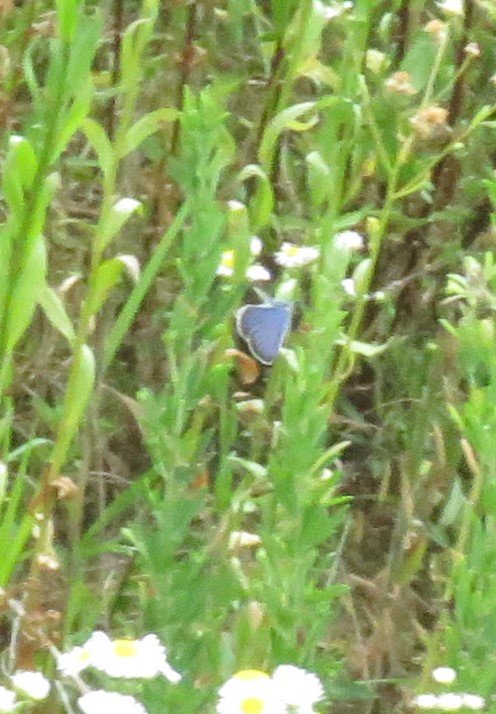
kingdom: Animalia
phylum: Arthropoda
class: Insecta
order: Lepidoptera
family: Lycaenidae
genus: Elkalyce
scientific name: Elkalyce comyntas
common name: Eastern Tailed-Blue
